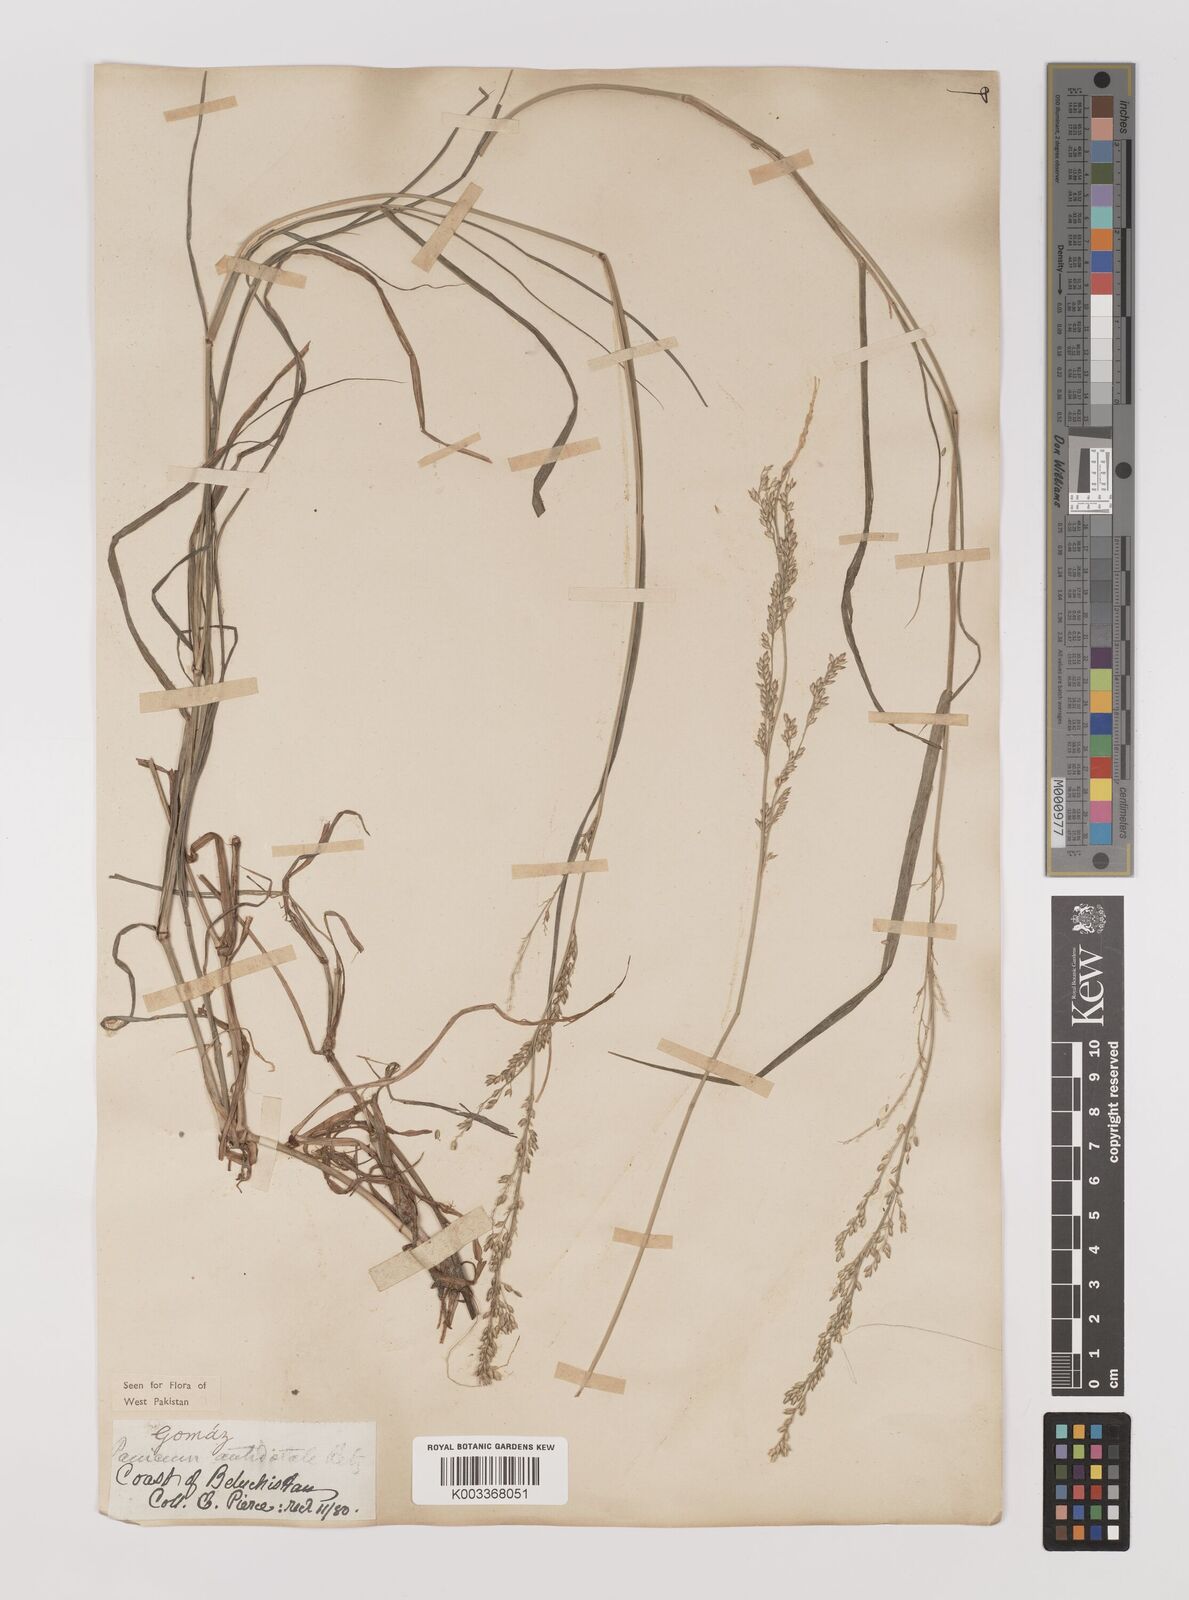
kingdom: Plantae
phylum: Tracheophyta
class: Liliopsida
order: Poales
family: Poaceae
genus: Panicum
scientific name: Panicum antidotale
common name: Blue panicum
